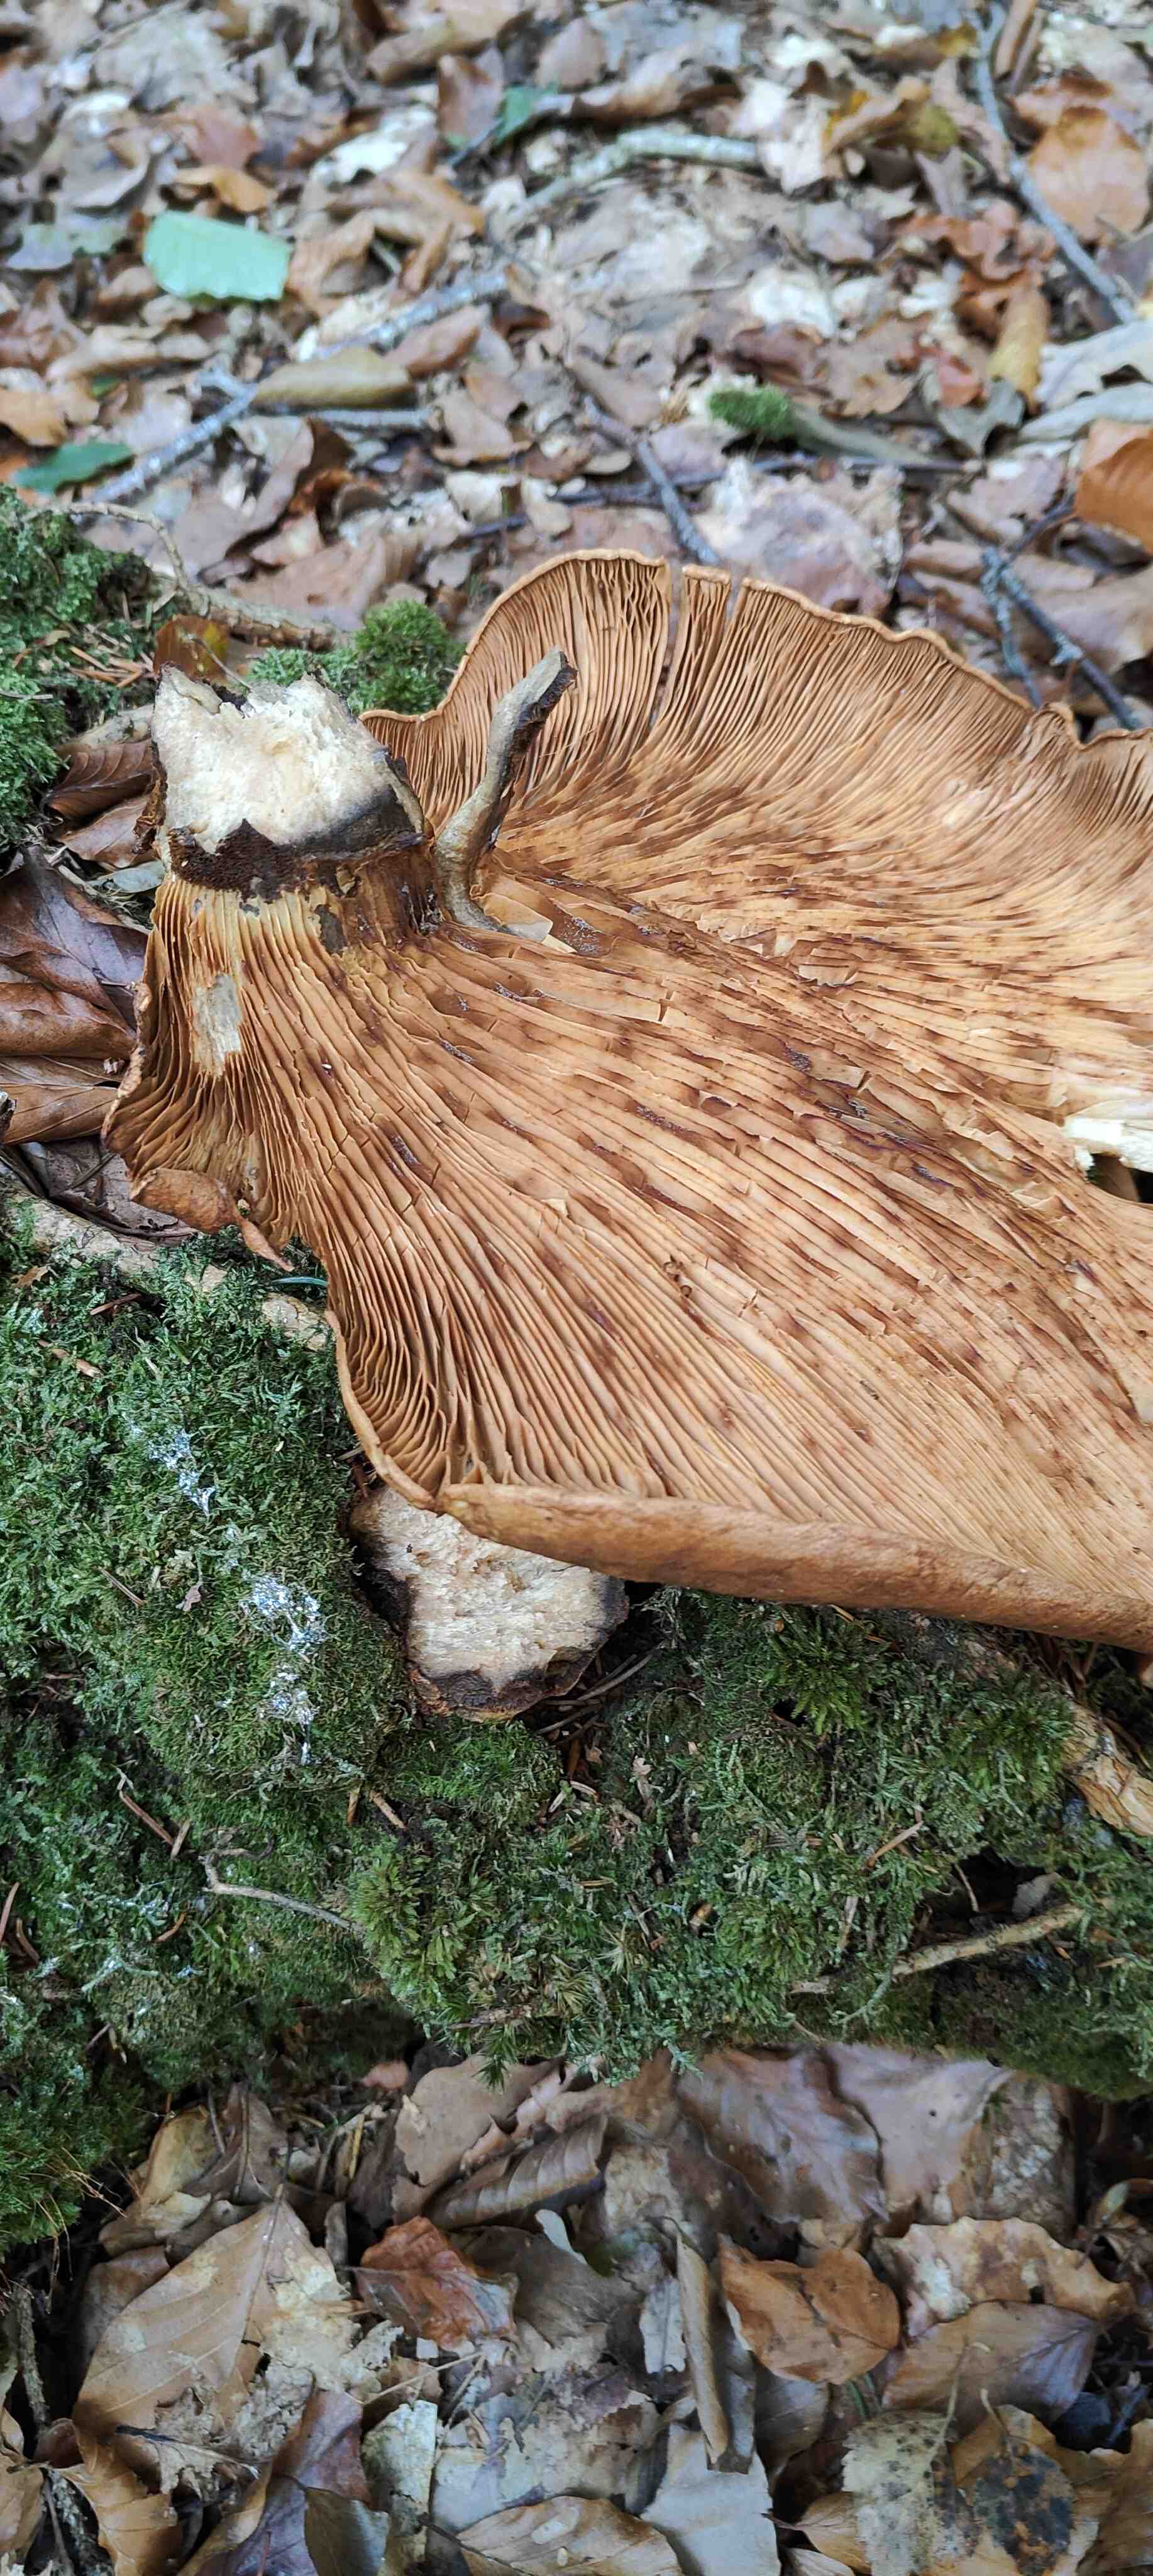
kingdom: Fungi
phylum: Basidiomycota
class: Agaricomycetes
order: Boletales
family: Tapinellaceae
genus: Tapinella
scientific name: Tapinella atrotomentosa
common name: sortfiltet viftesvamp
